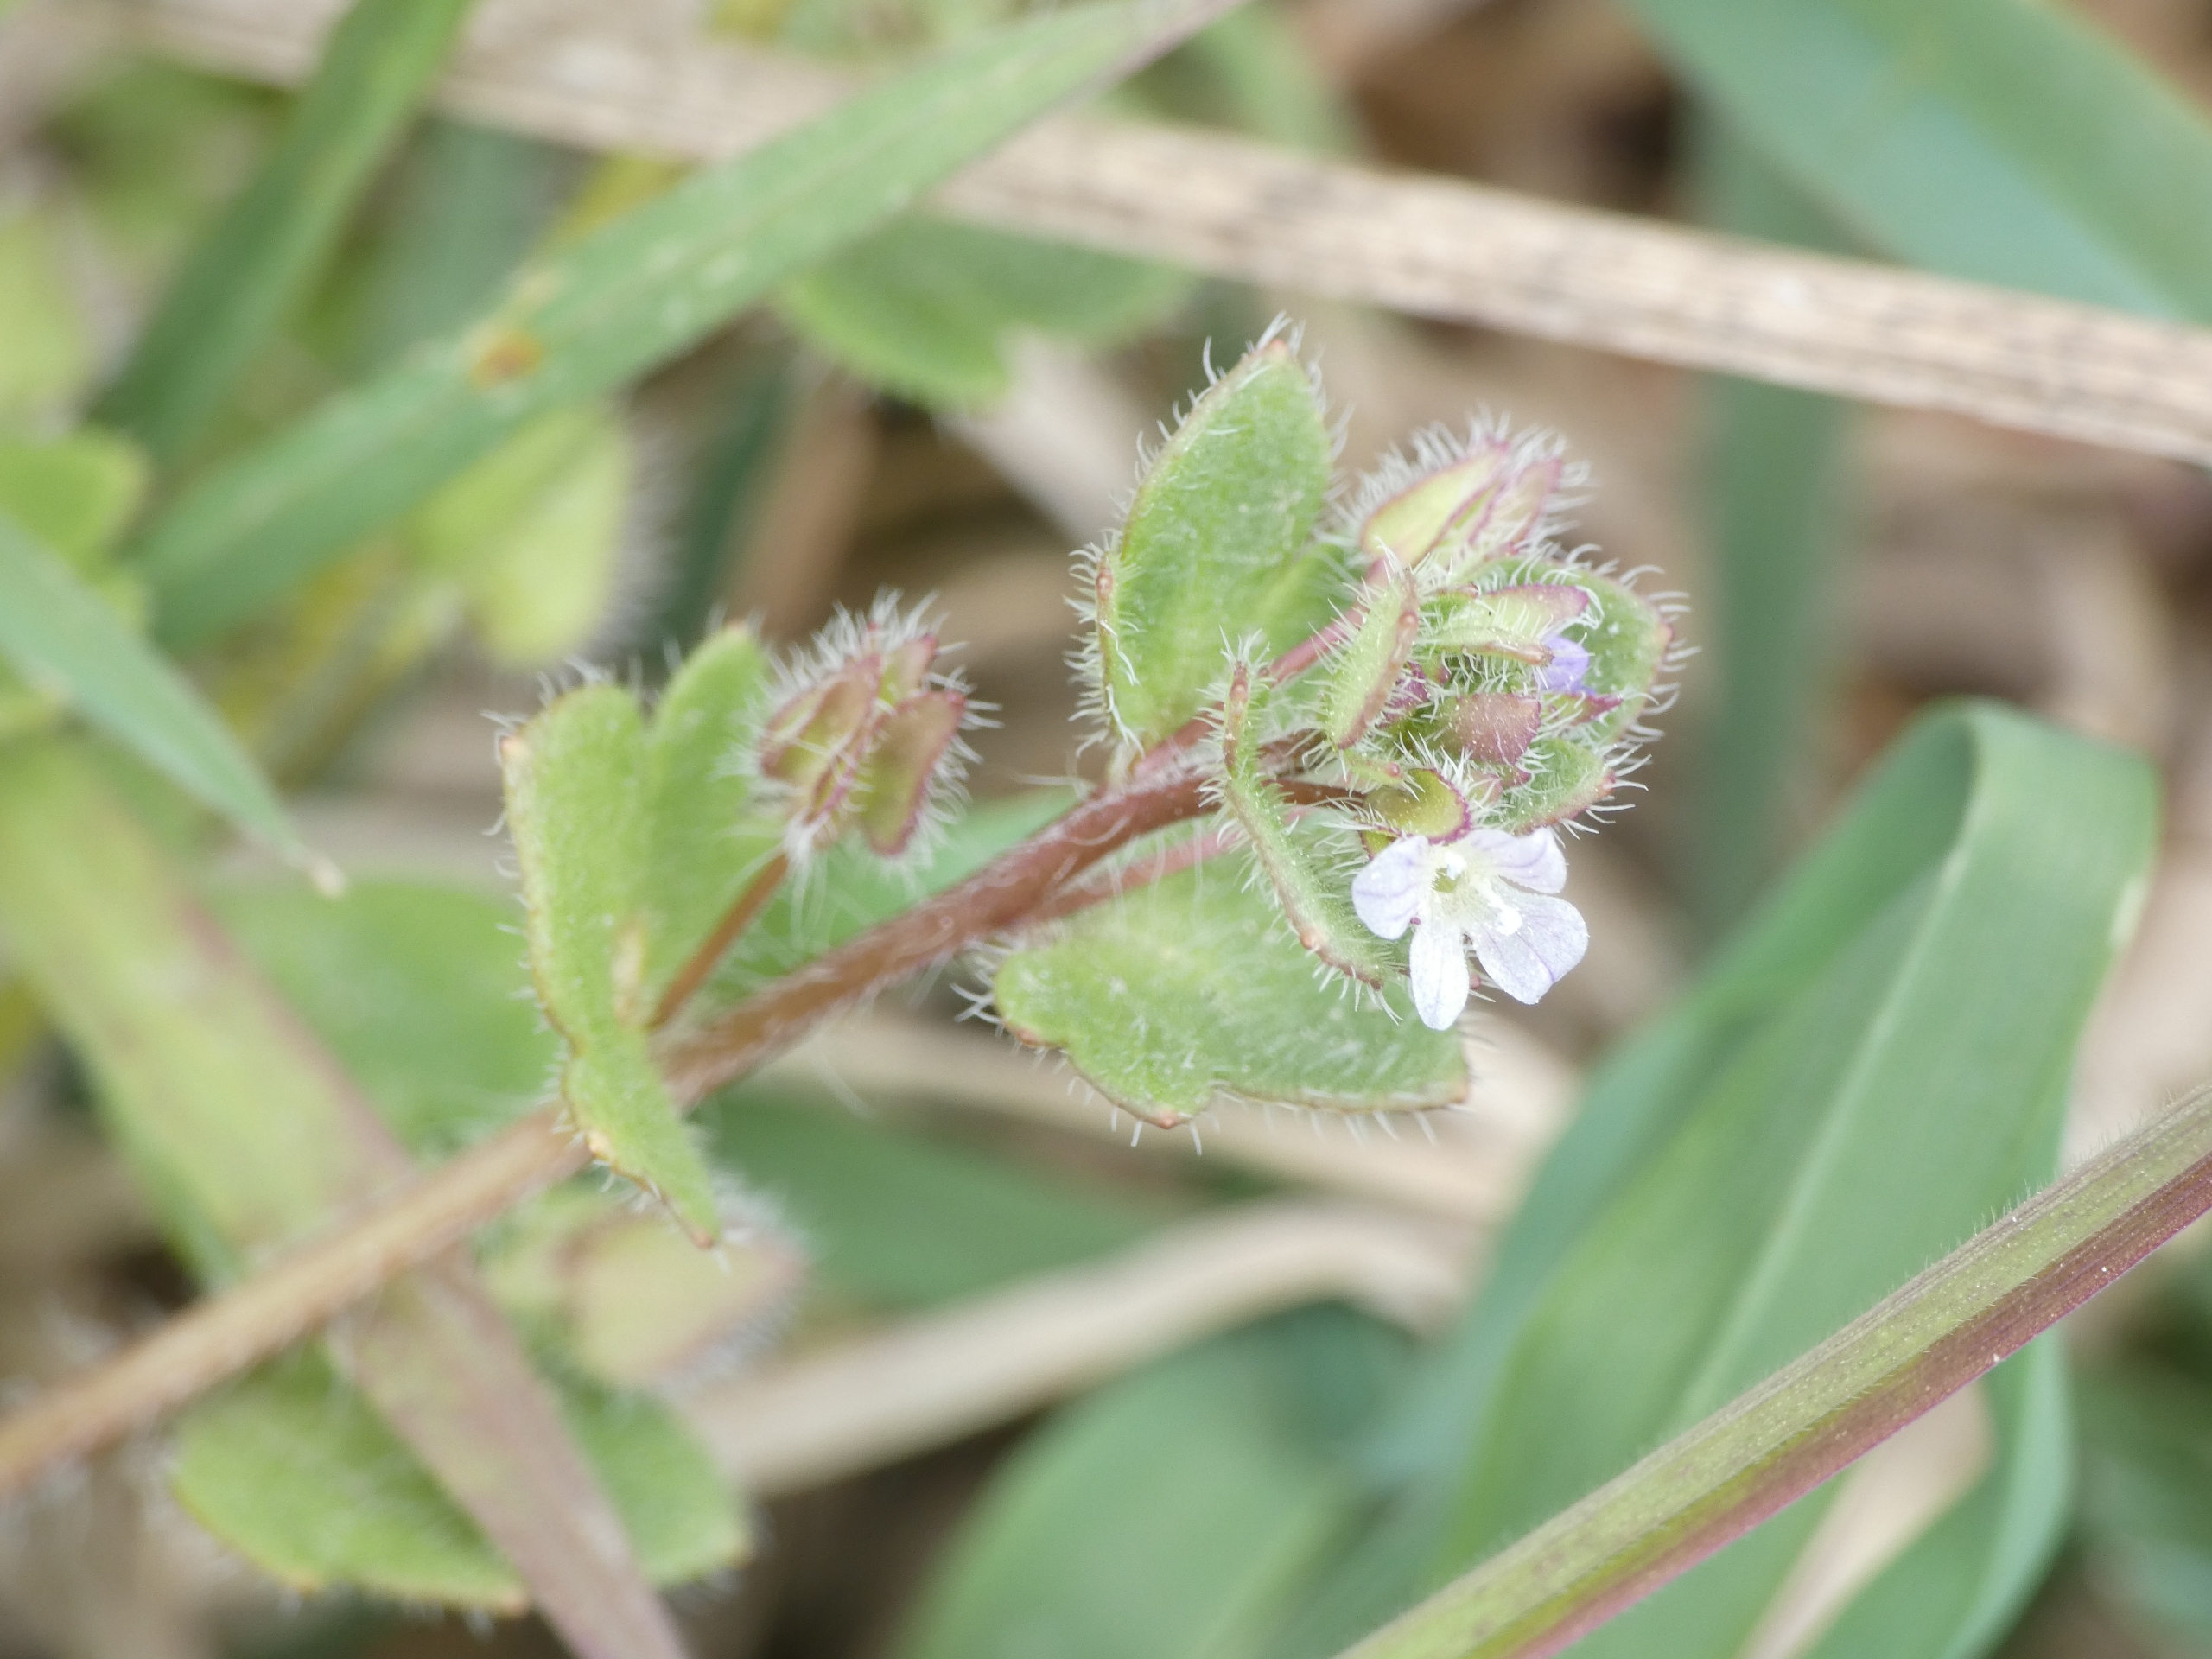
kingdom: Plantae
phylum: Tracheophyta
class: Magnoliopsida
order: Lamiales
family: Plantaginaceae
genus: Veronica
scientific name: Veronica hederifolia
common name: Vedbend-ærenpris
